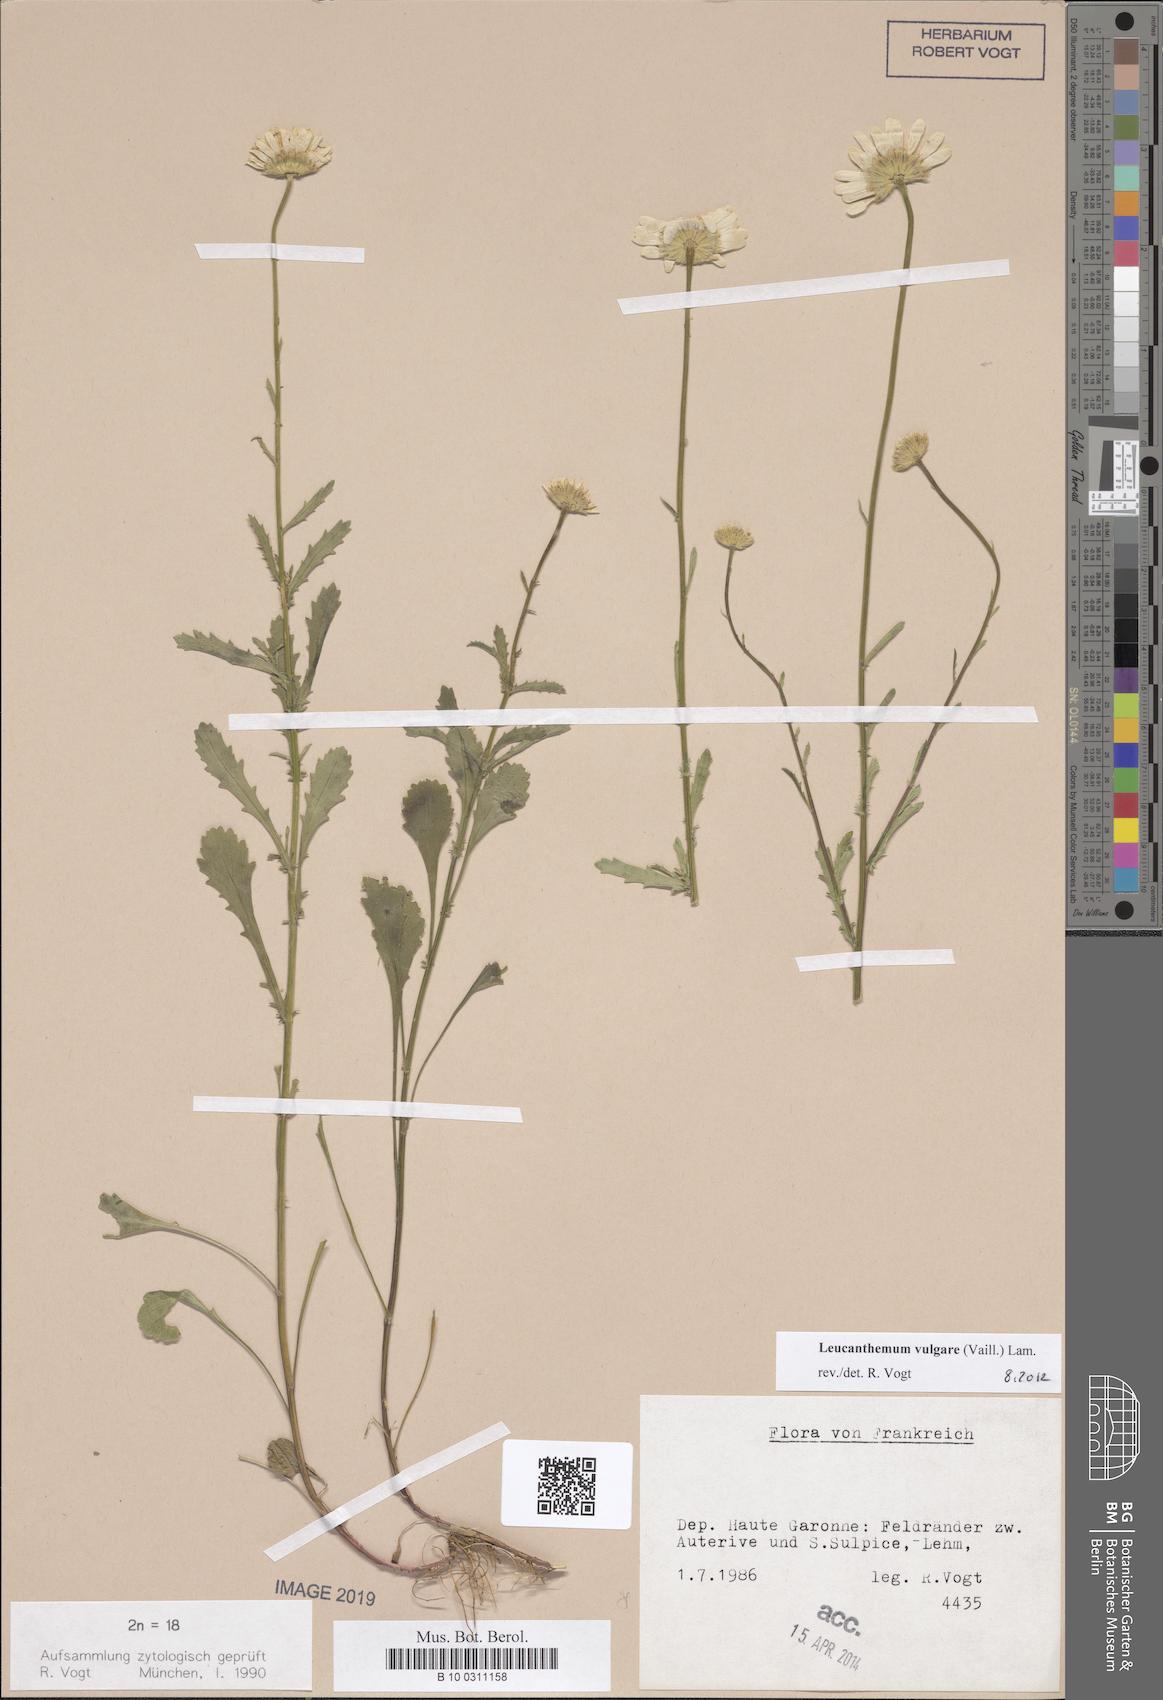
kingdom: Plantae
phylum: Tracheophyta
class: Magnoliopsida
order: Asterales
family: Asteraceae
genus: Leucanthemum
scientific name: Leucanthemum vulgare
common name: Oxeye daisy
